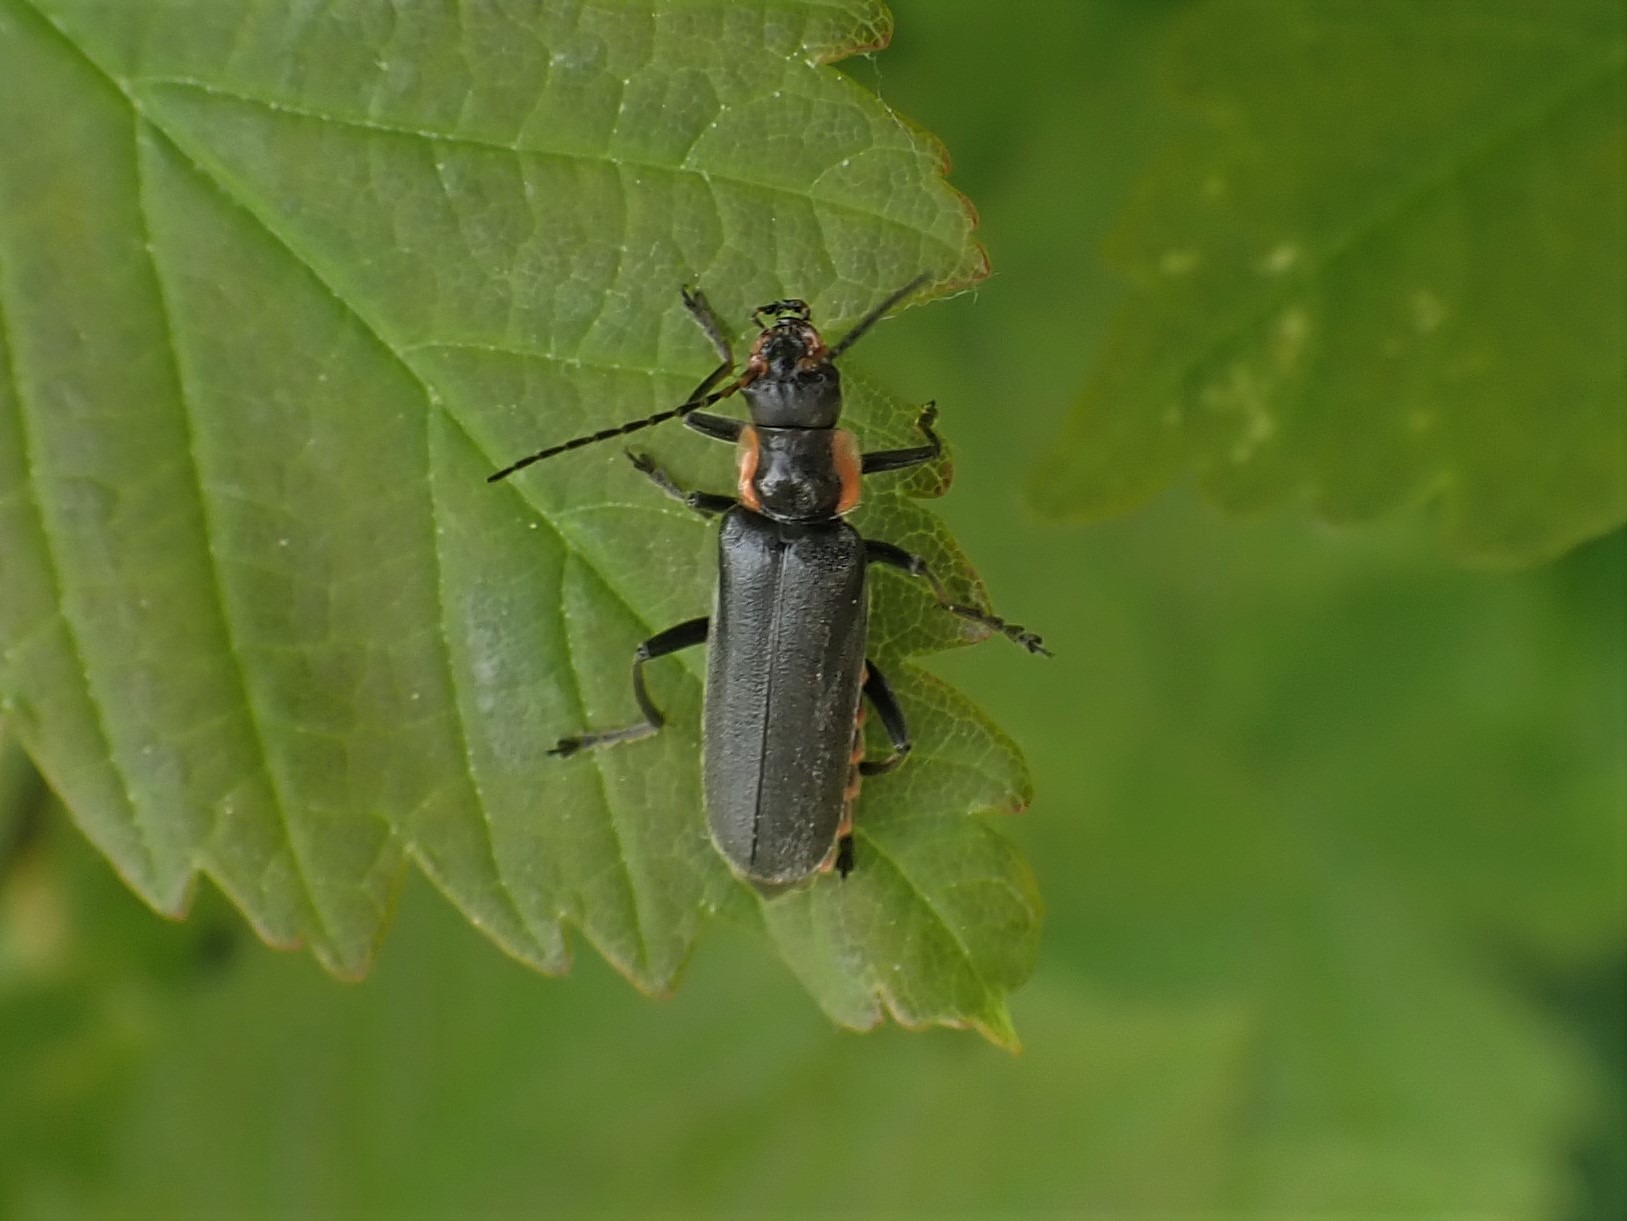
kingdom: Animalia
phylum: Arthropoda
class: Insecta
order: Coleoptera
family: Cantharidae
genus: Cantharis
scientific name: Cantharis obscura
